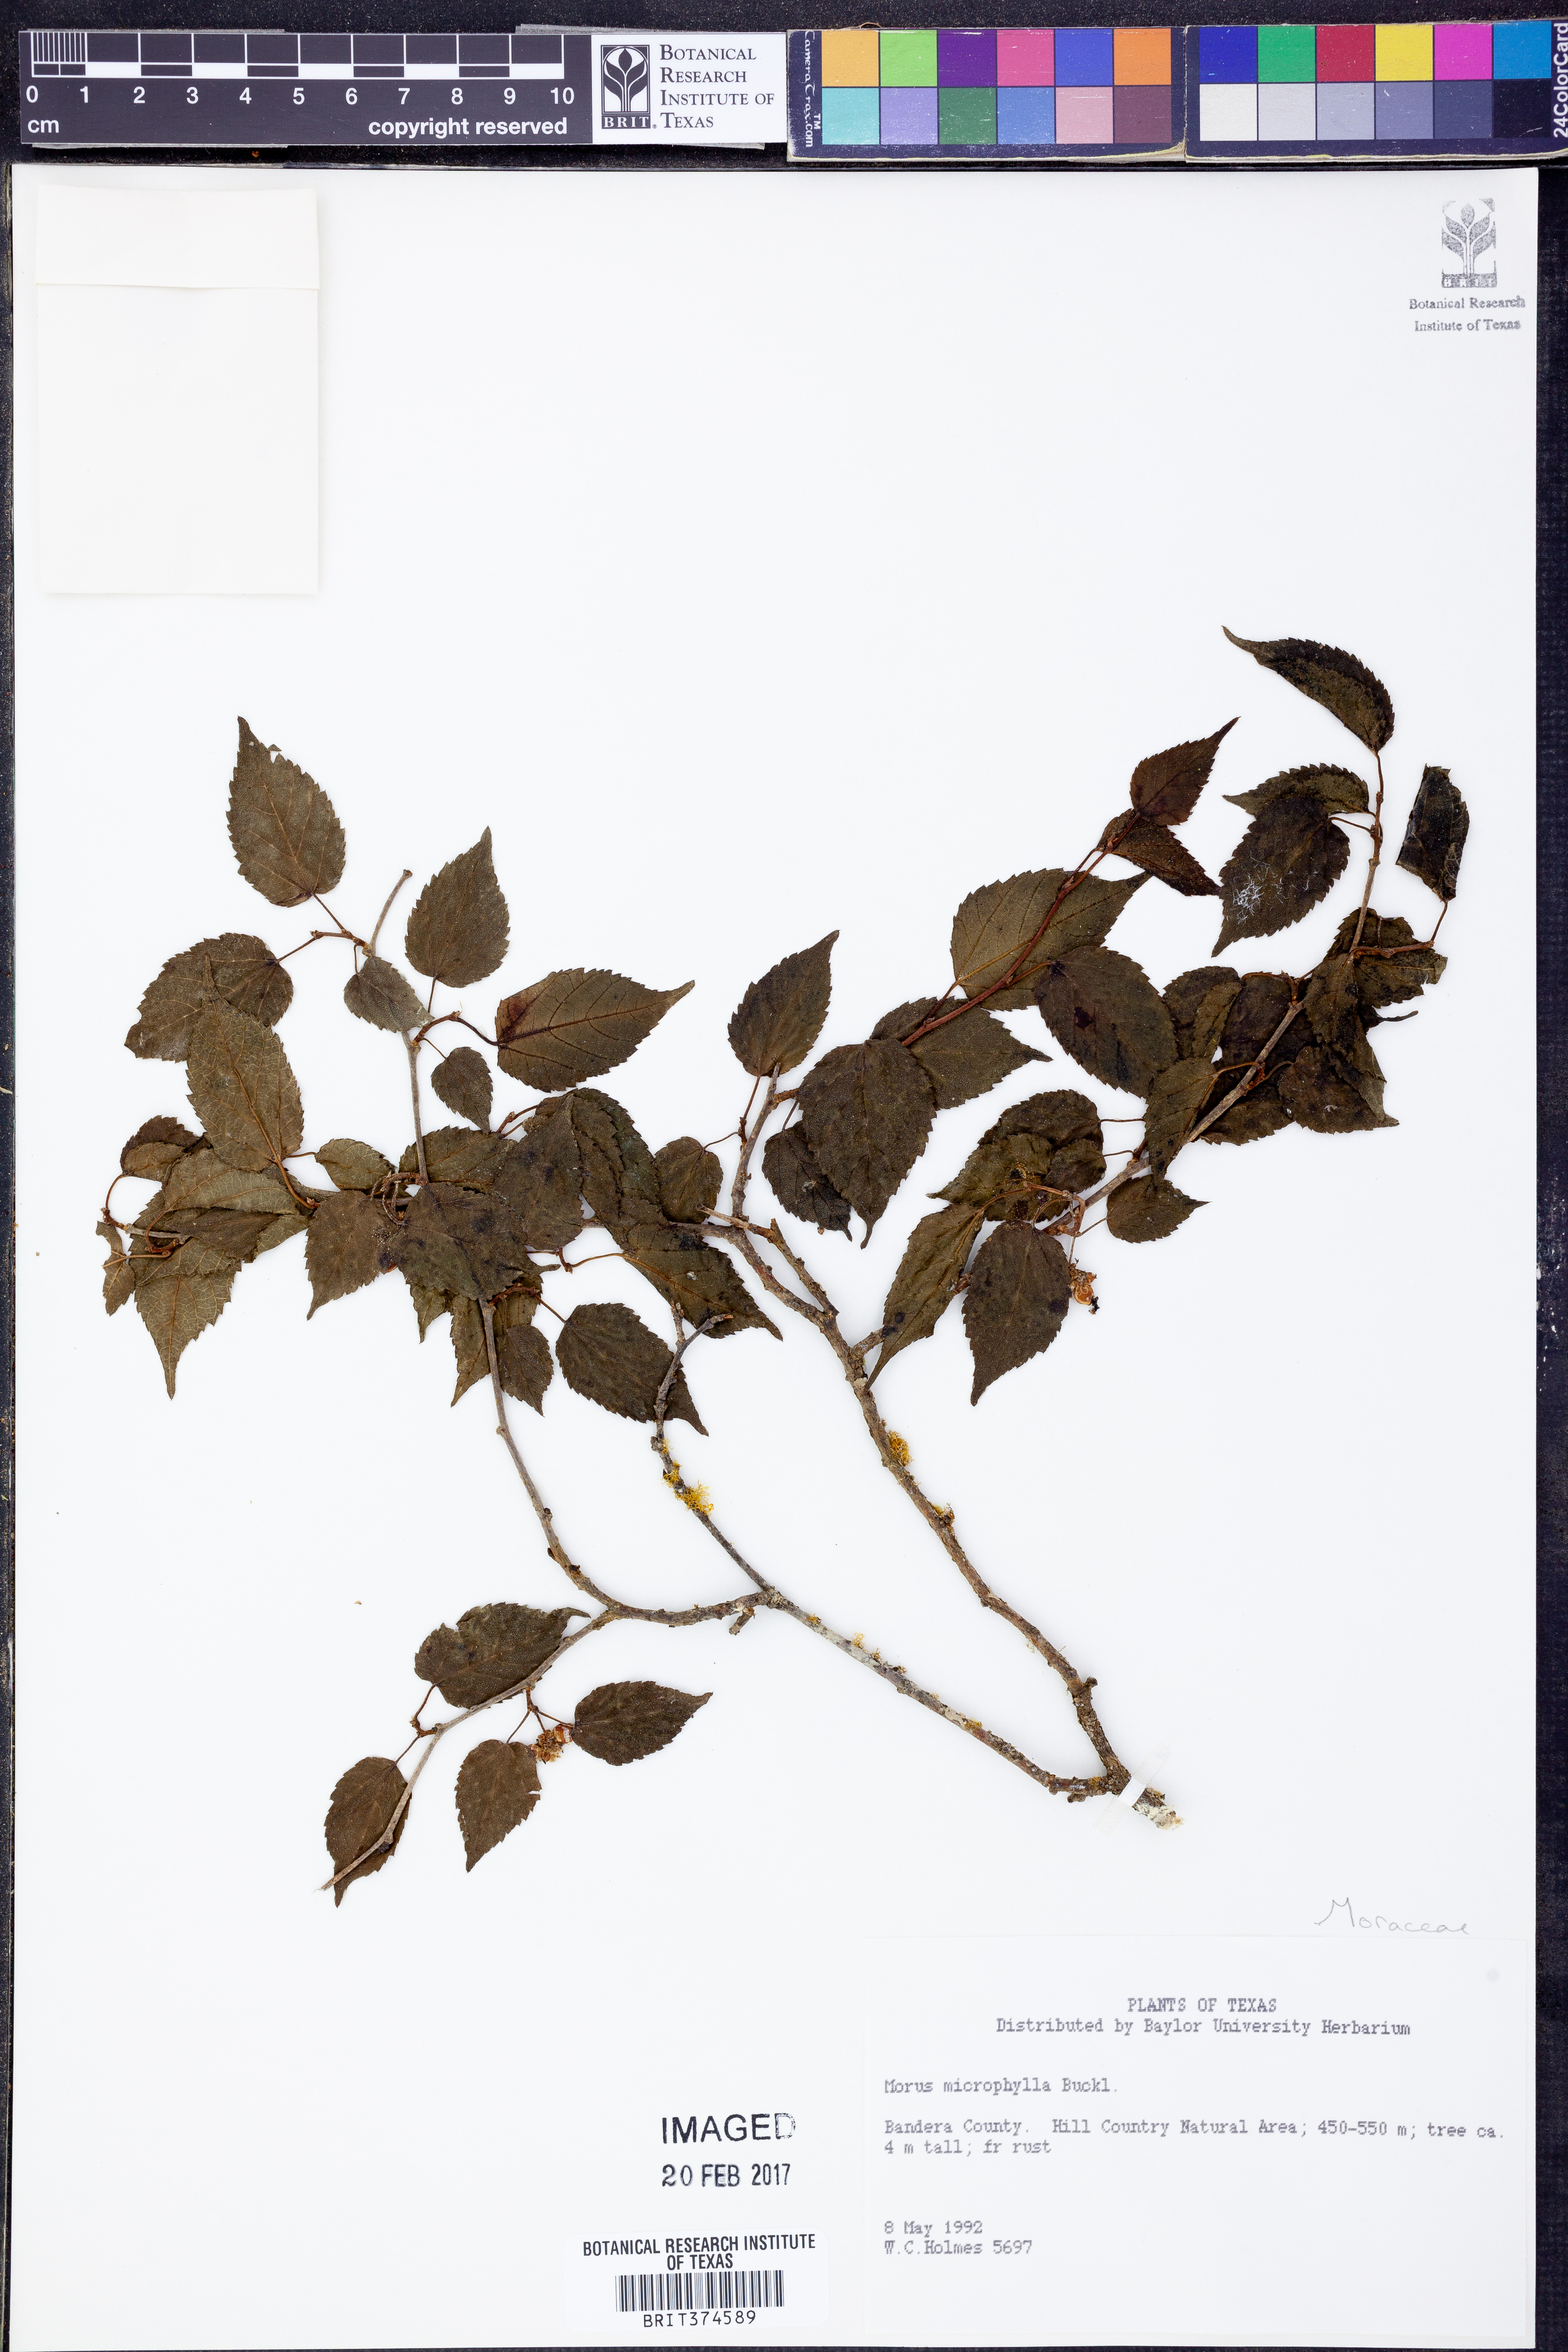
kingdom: Plantae
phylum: Tracheophyta
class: Magnoliopsida
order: Rosales
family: Moraceae
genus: Morus
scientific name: Morus microphylla
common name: Mexican mulberry
